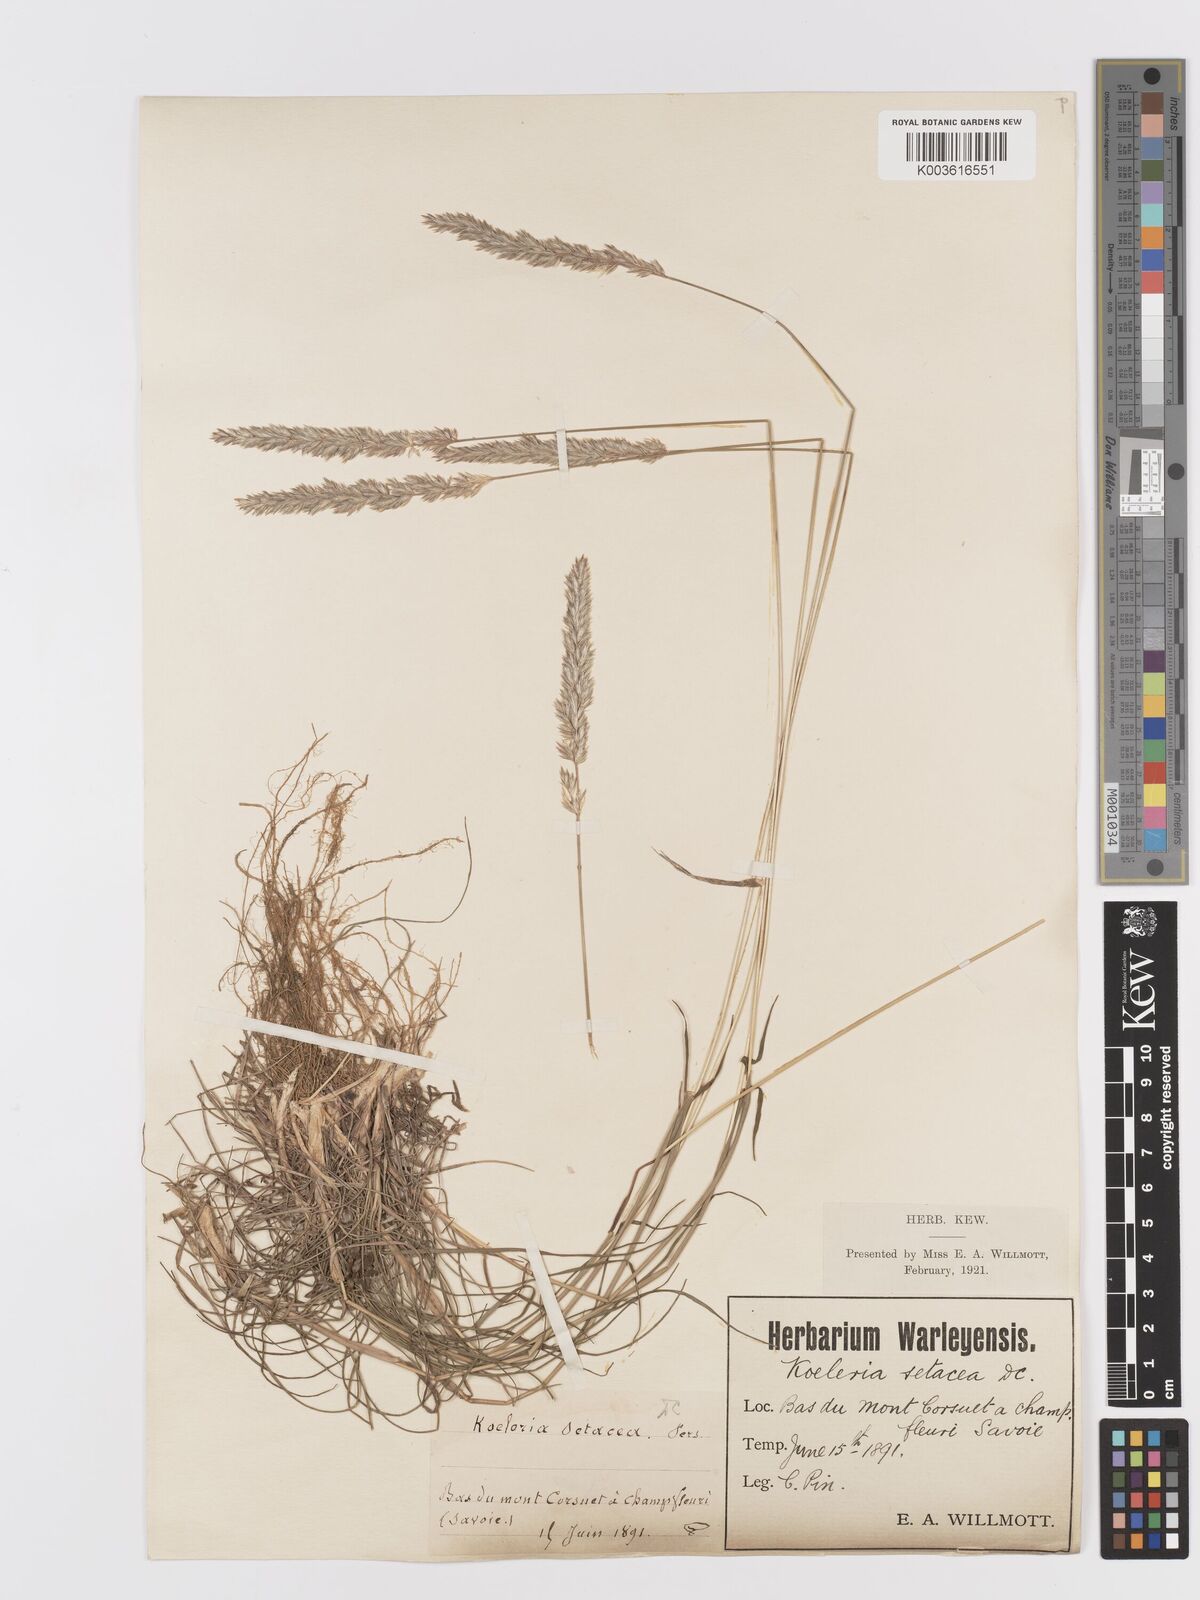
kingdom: Plantae
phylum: Tracheophyta
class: Liliopsida
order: Poales
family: Poaceae
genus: Koeleria
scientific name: Koeleria vallesiana
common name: Somerset hair-grass
